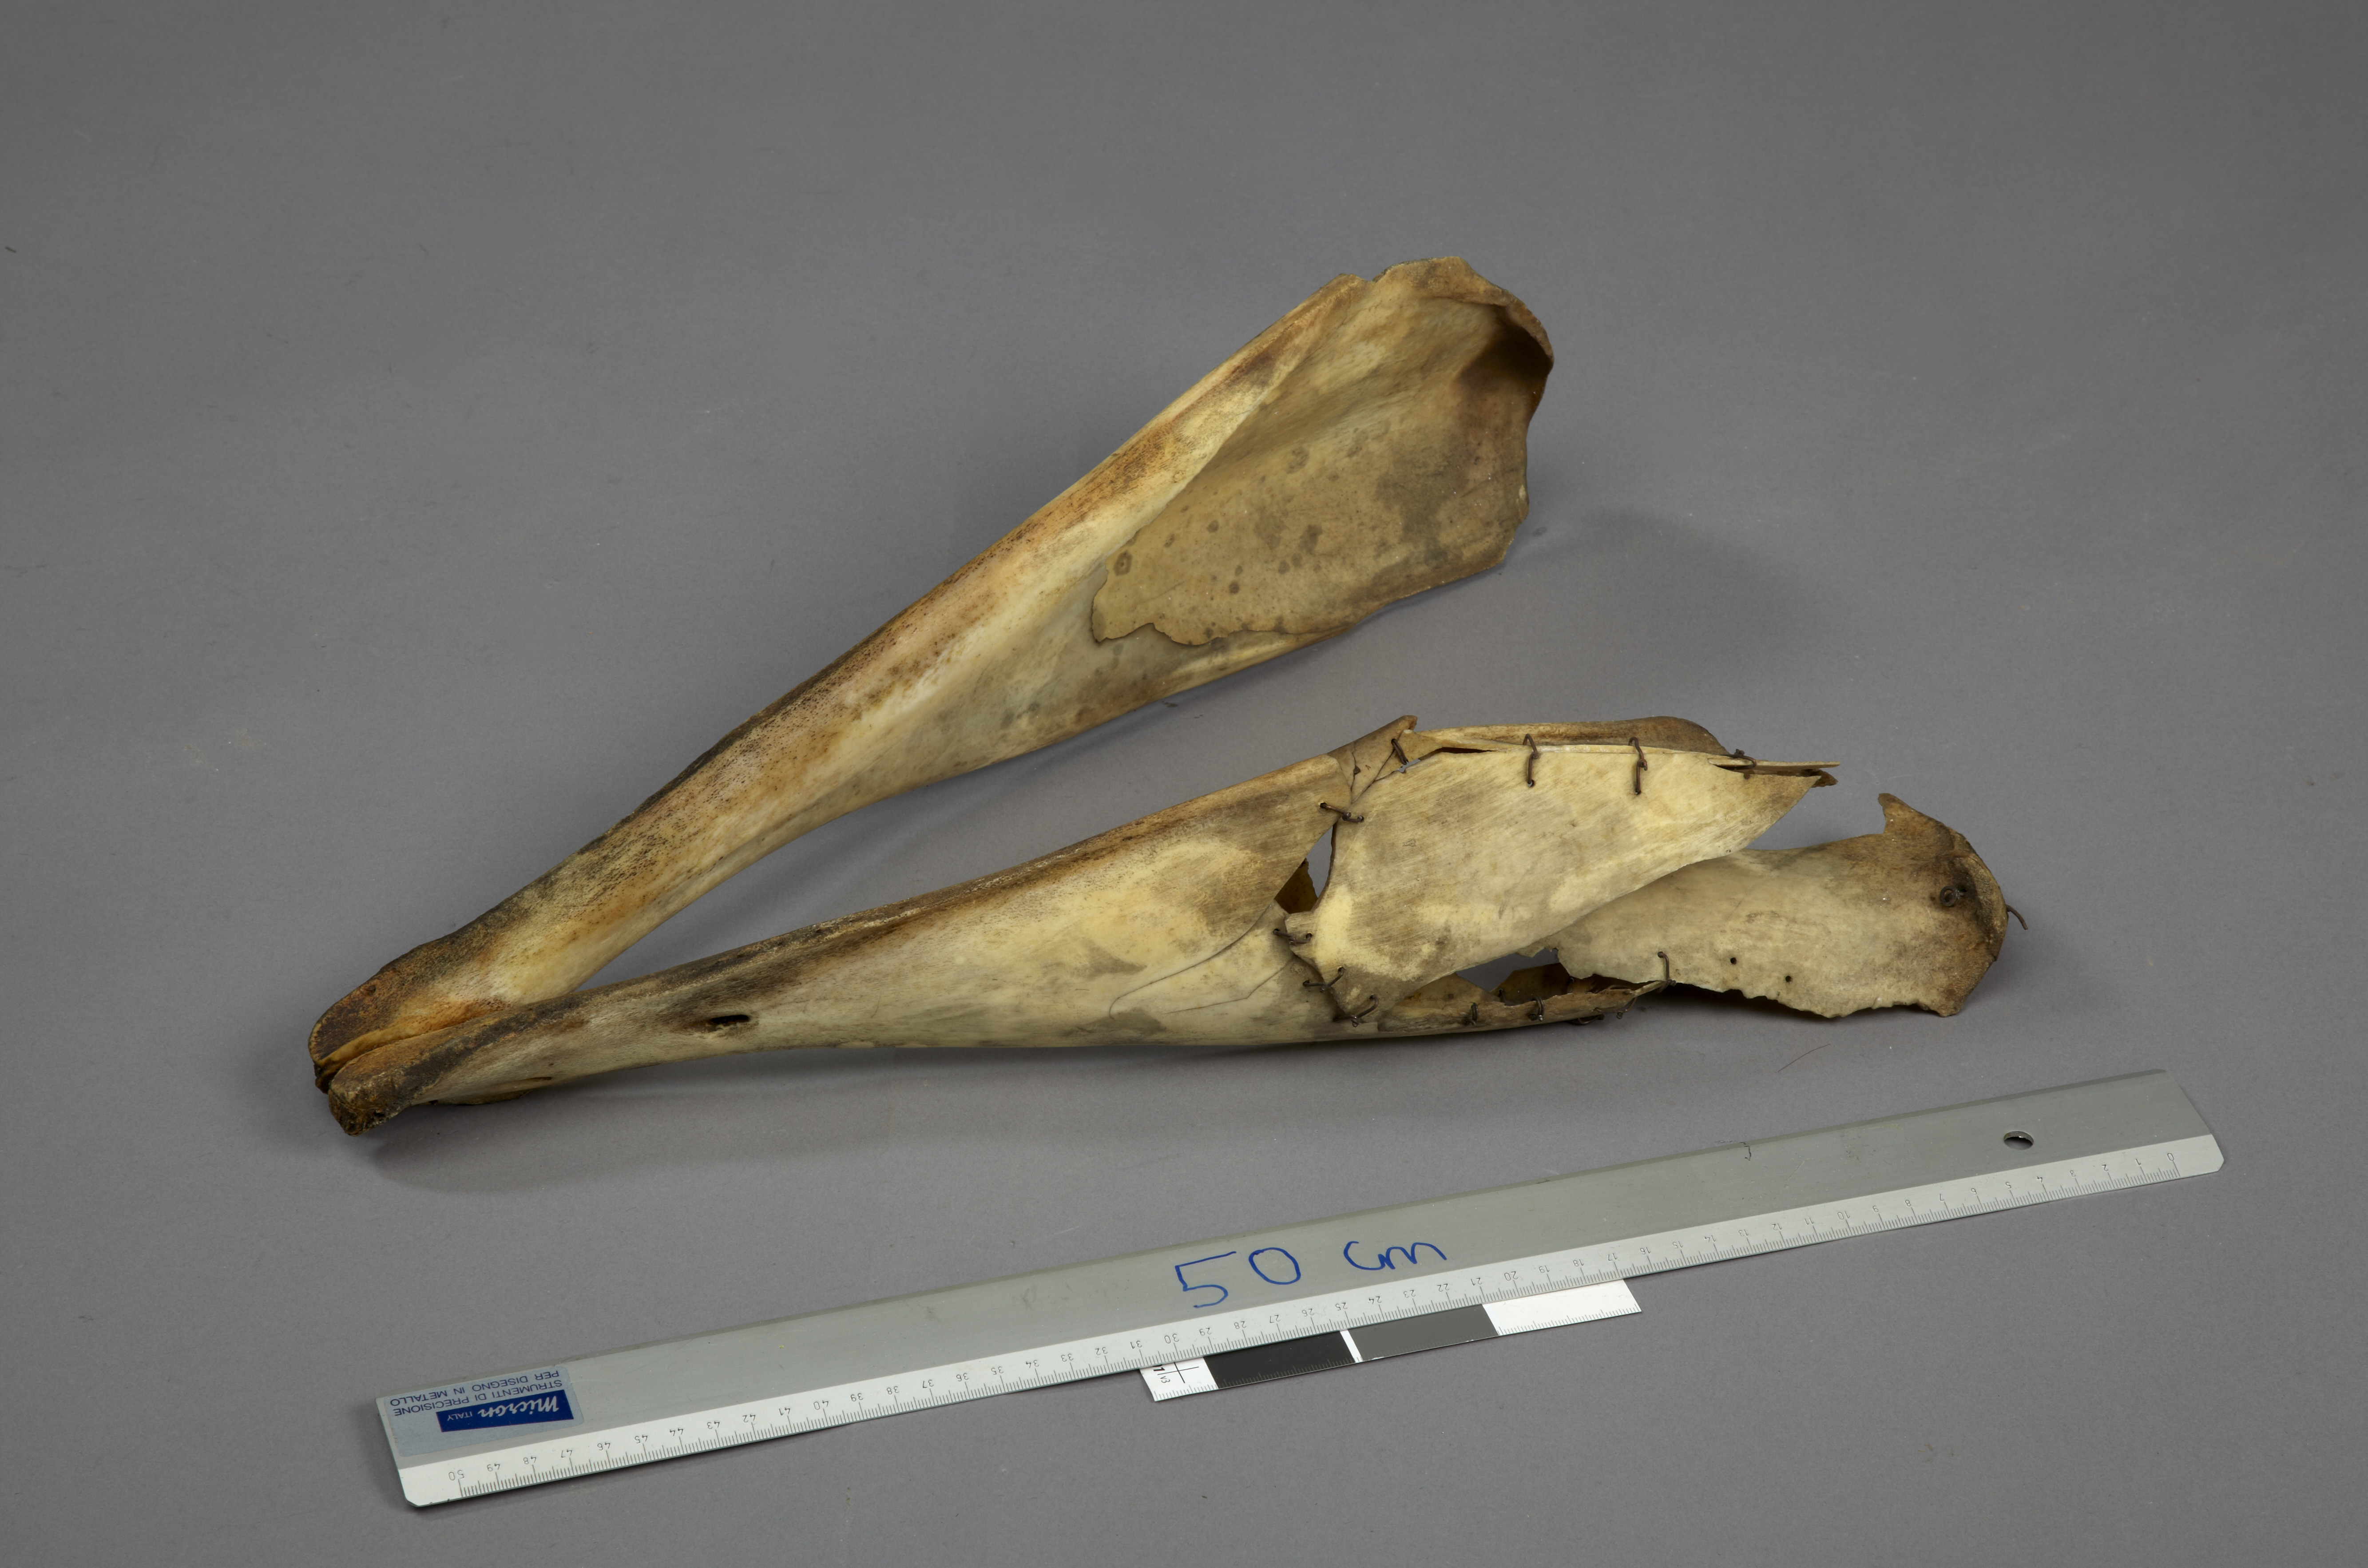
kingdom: Animalia
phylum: Chordata
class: Mammalia
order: Cetacea
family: Monodontidae
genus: Monodon
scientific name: Monodon monoceros
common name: Narwhal
